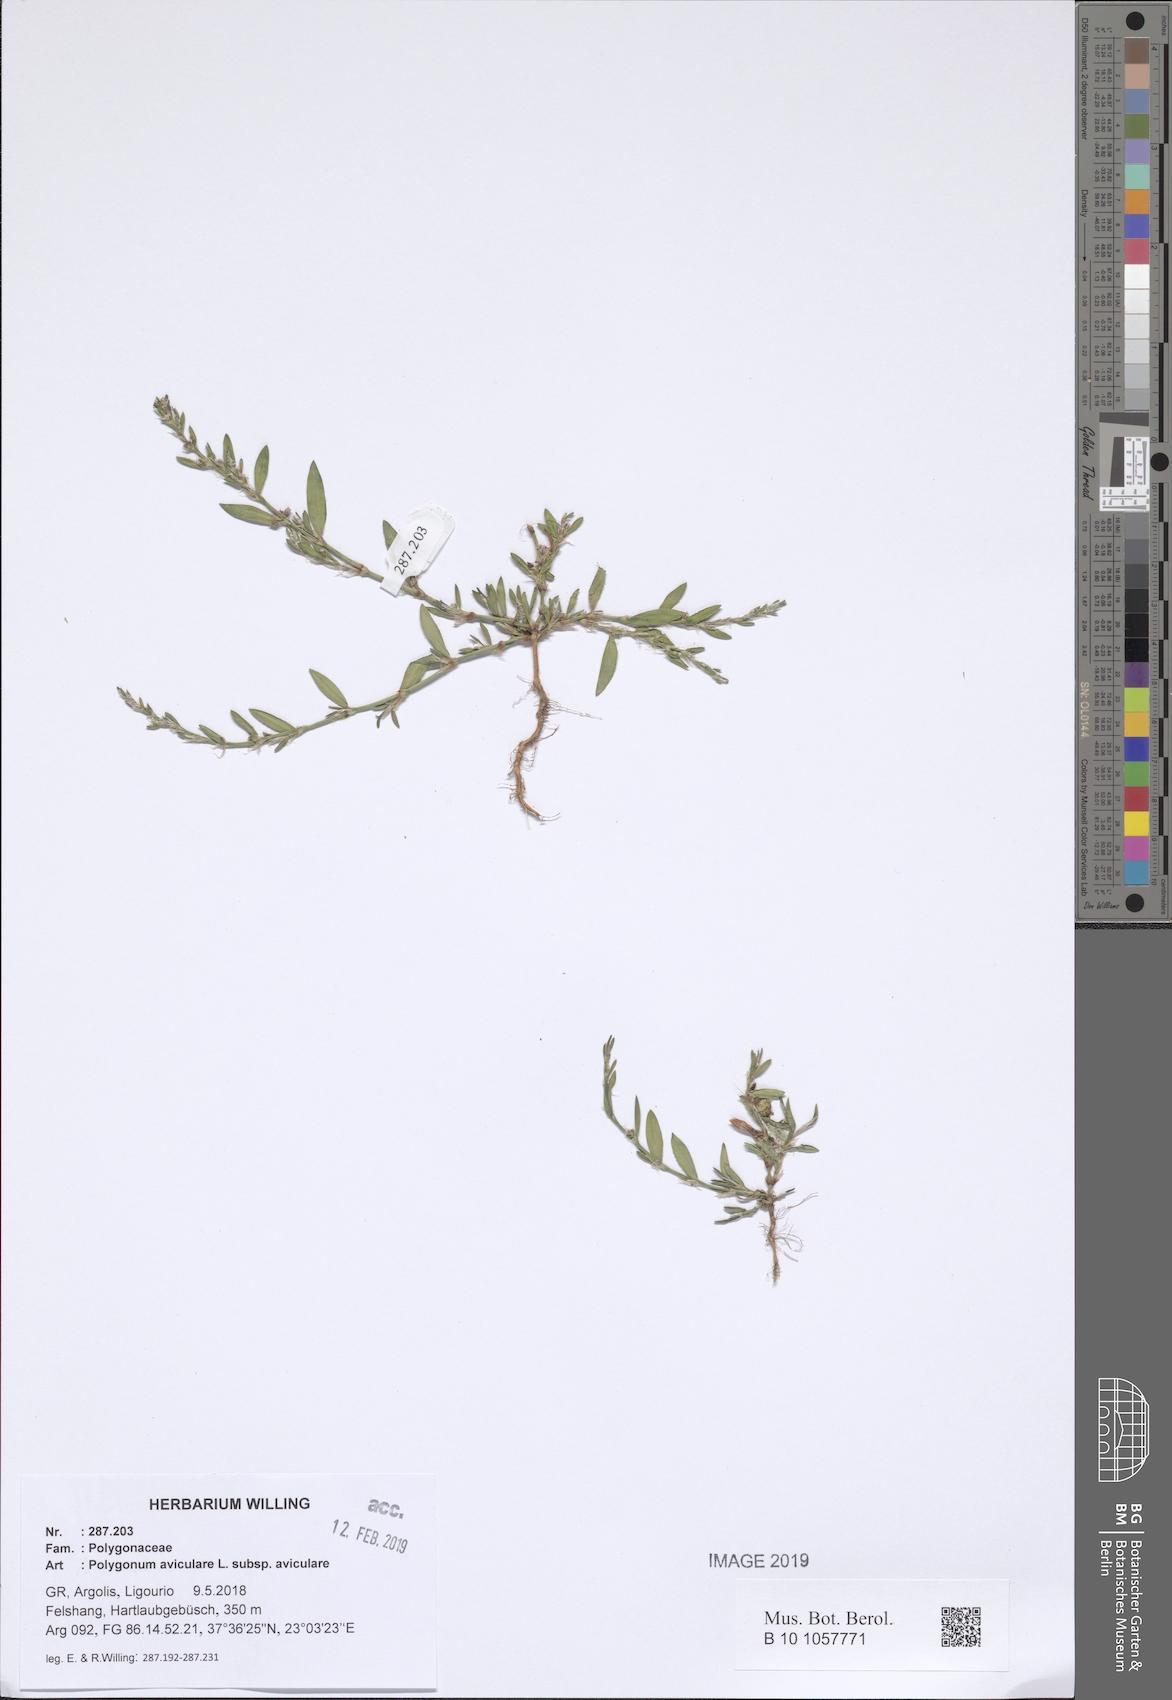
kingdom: Plantae
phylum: Tracheophyta
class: Magnoliopsida
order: Caryophyllales
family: Polygonaceae
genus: Polygonum
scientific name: Polygonum aviculare
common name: Prostrate knotweed
